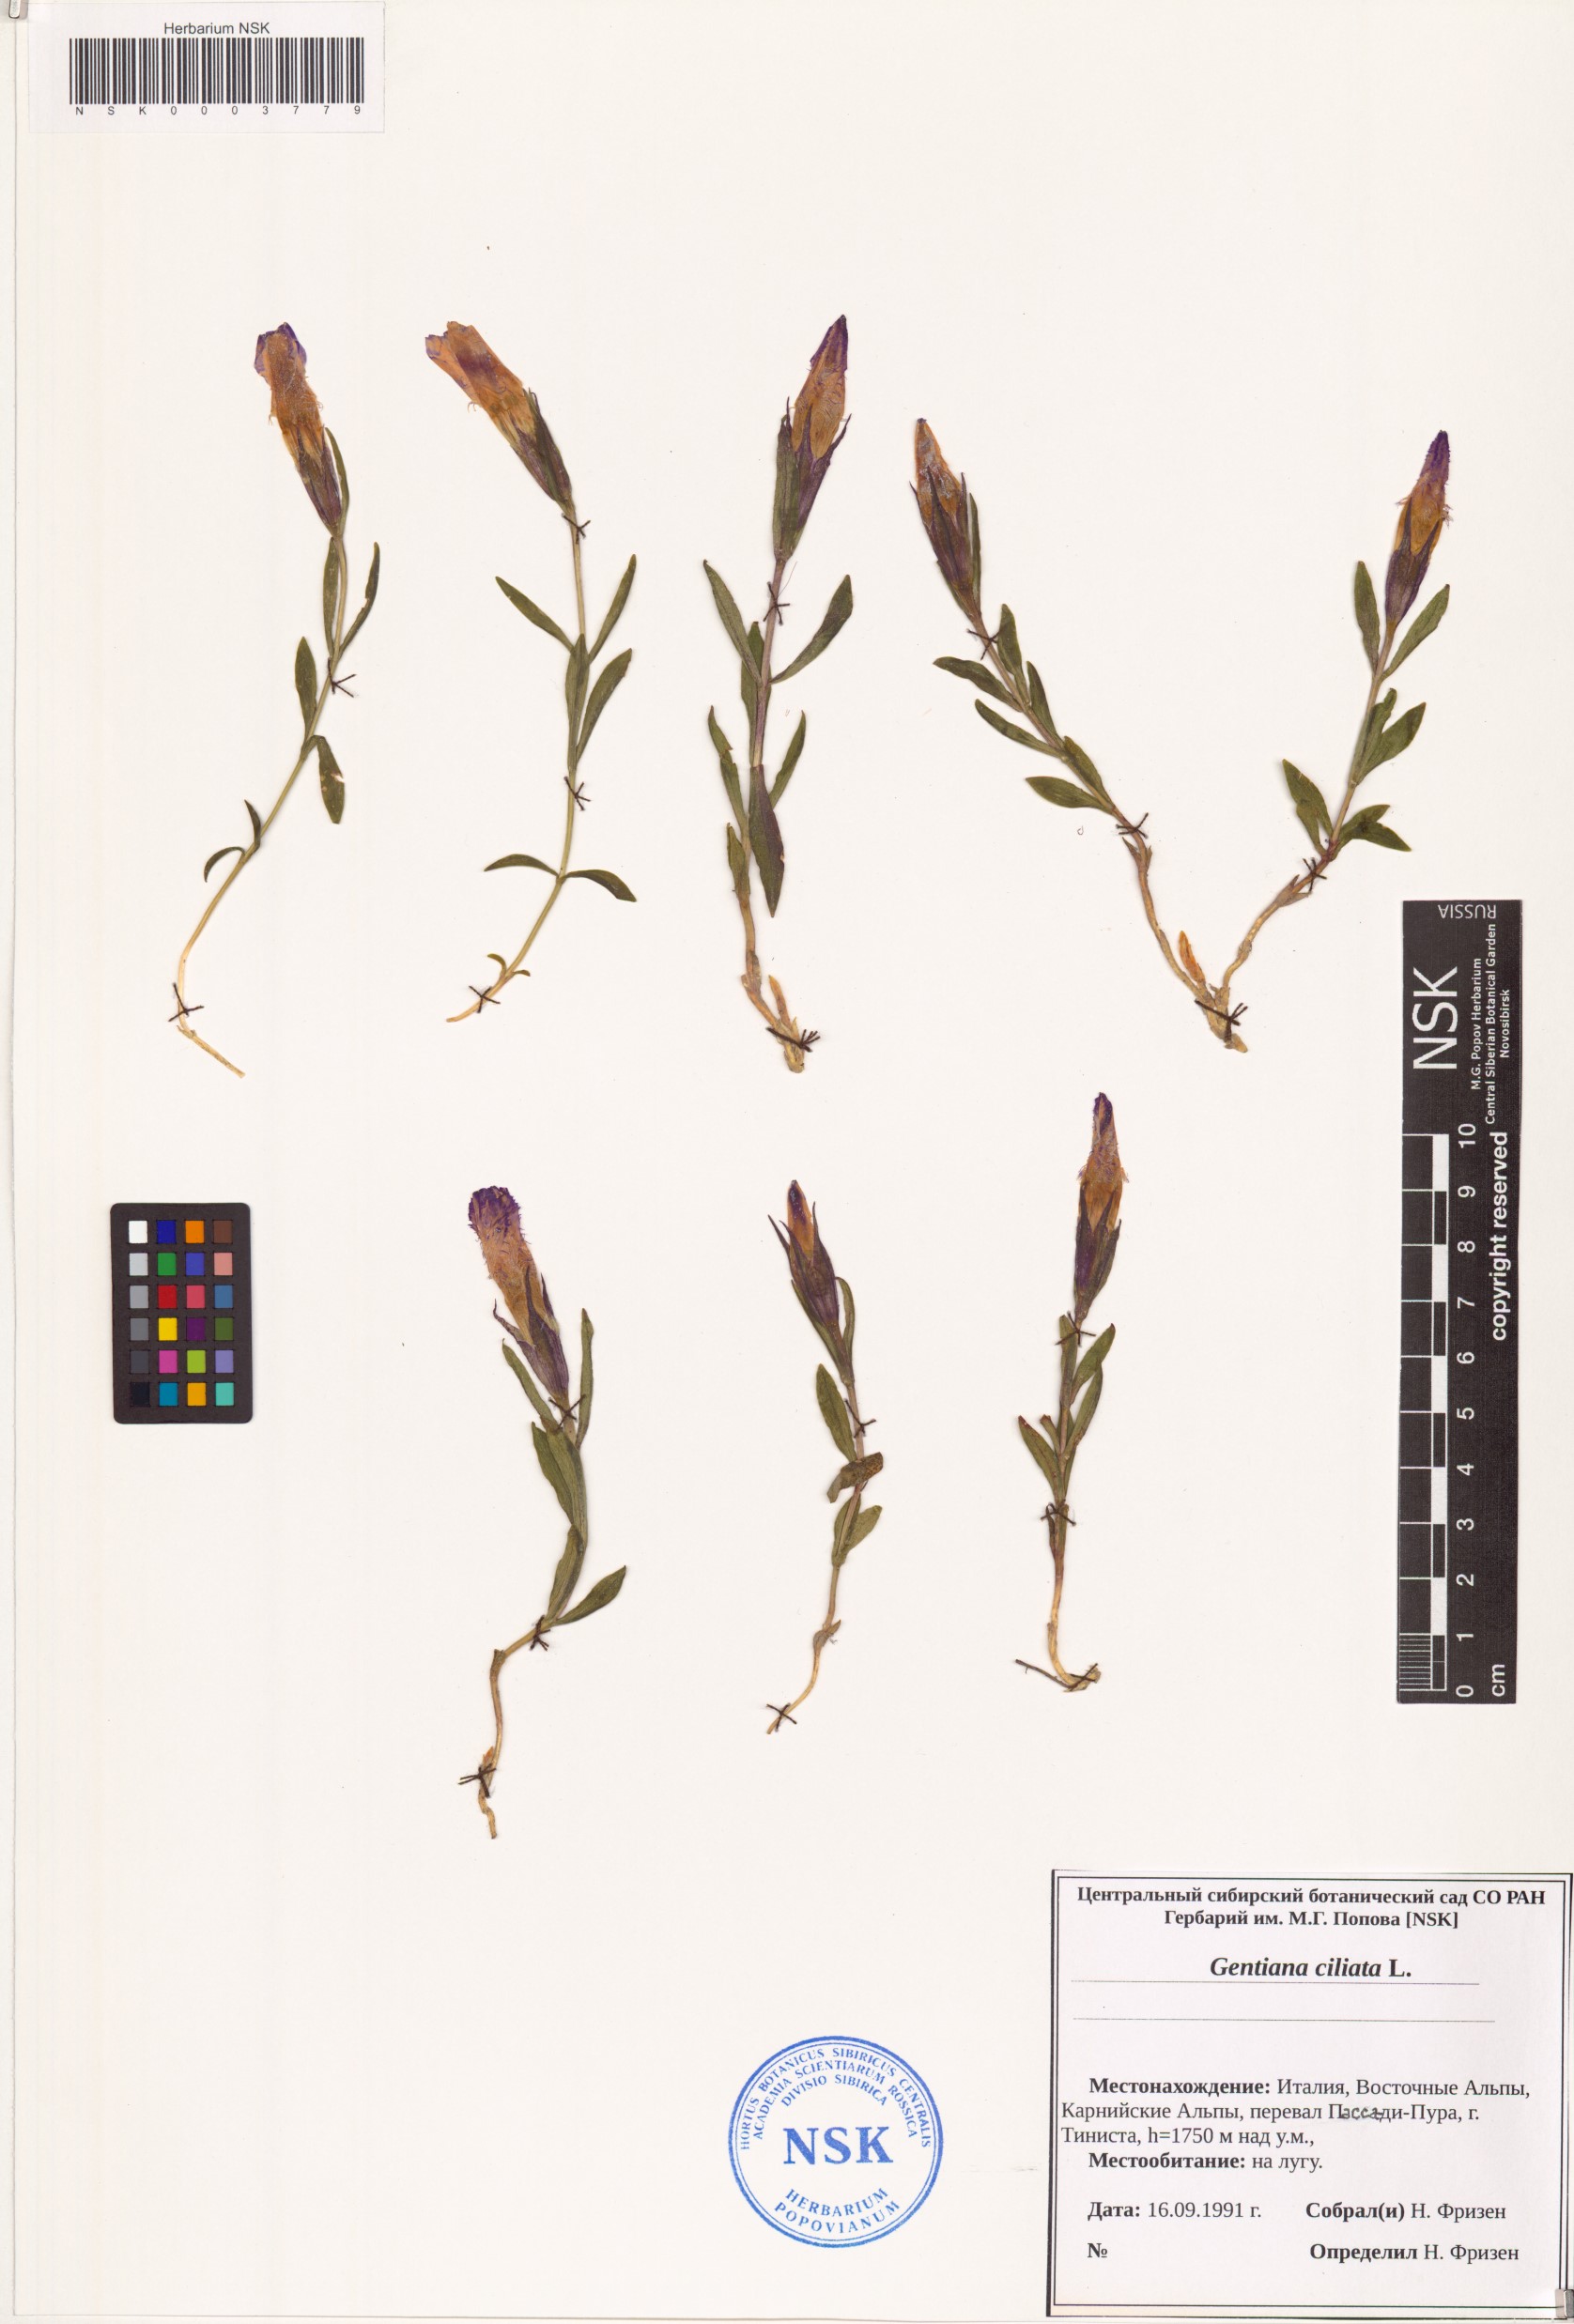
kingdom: Plantae
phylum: Tracheophyta
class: Magnoliopsida
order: Gentianales
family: Gentianaceae
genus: Gentianopsis
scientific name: Gentianopsis ciliata
